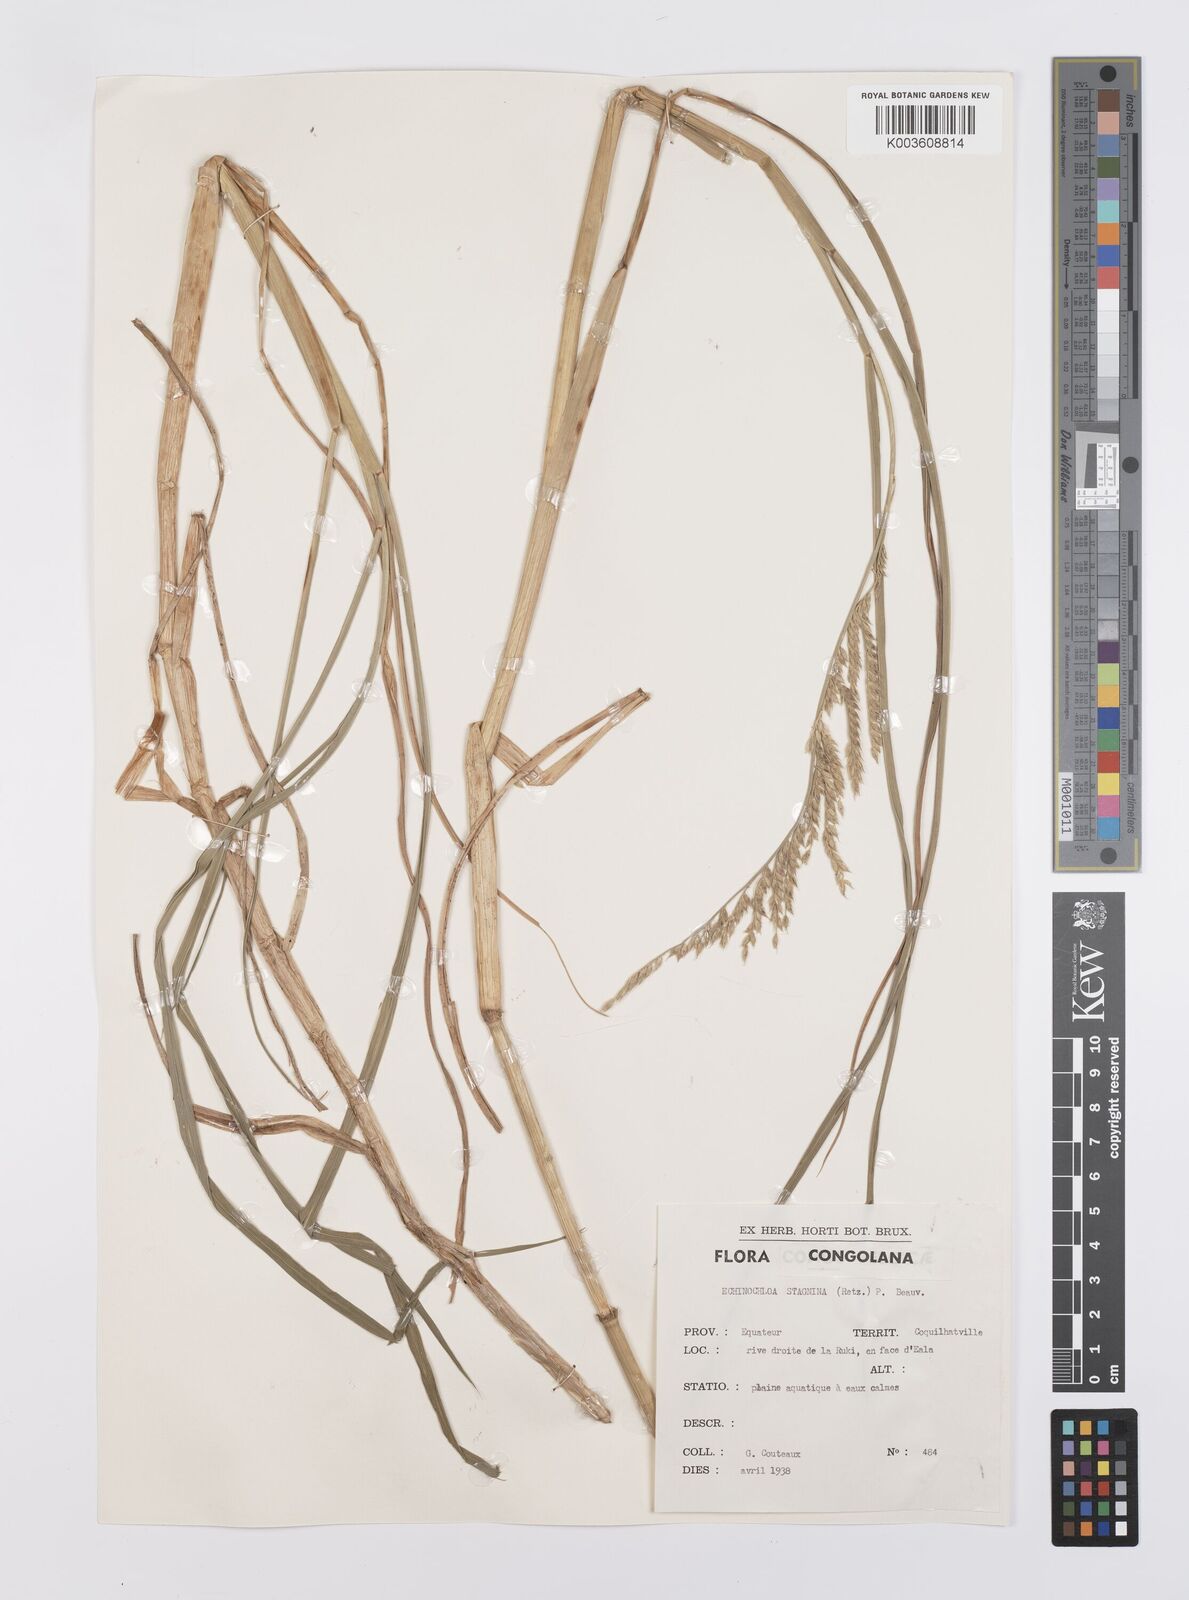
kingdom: Plantae
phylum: Tracheophyta
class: Liliopsida
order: Poales
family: Poaceae
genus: Echinochloa
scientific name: Echinochloa stagnina
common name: Burgu grass
